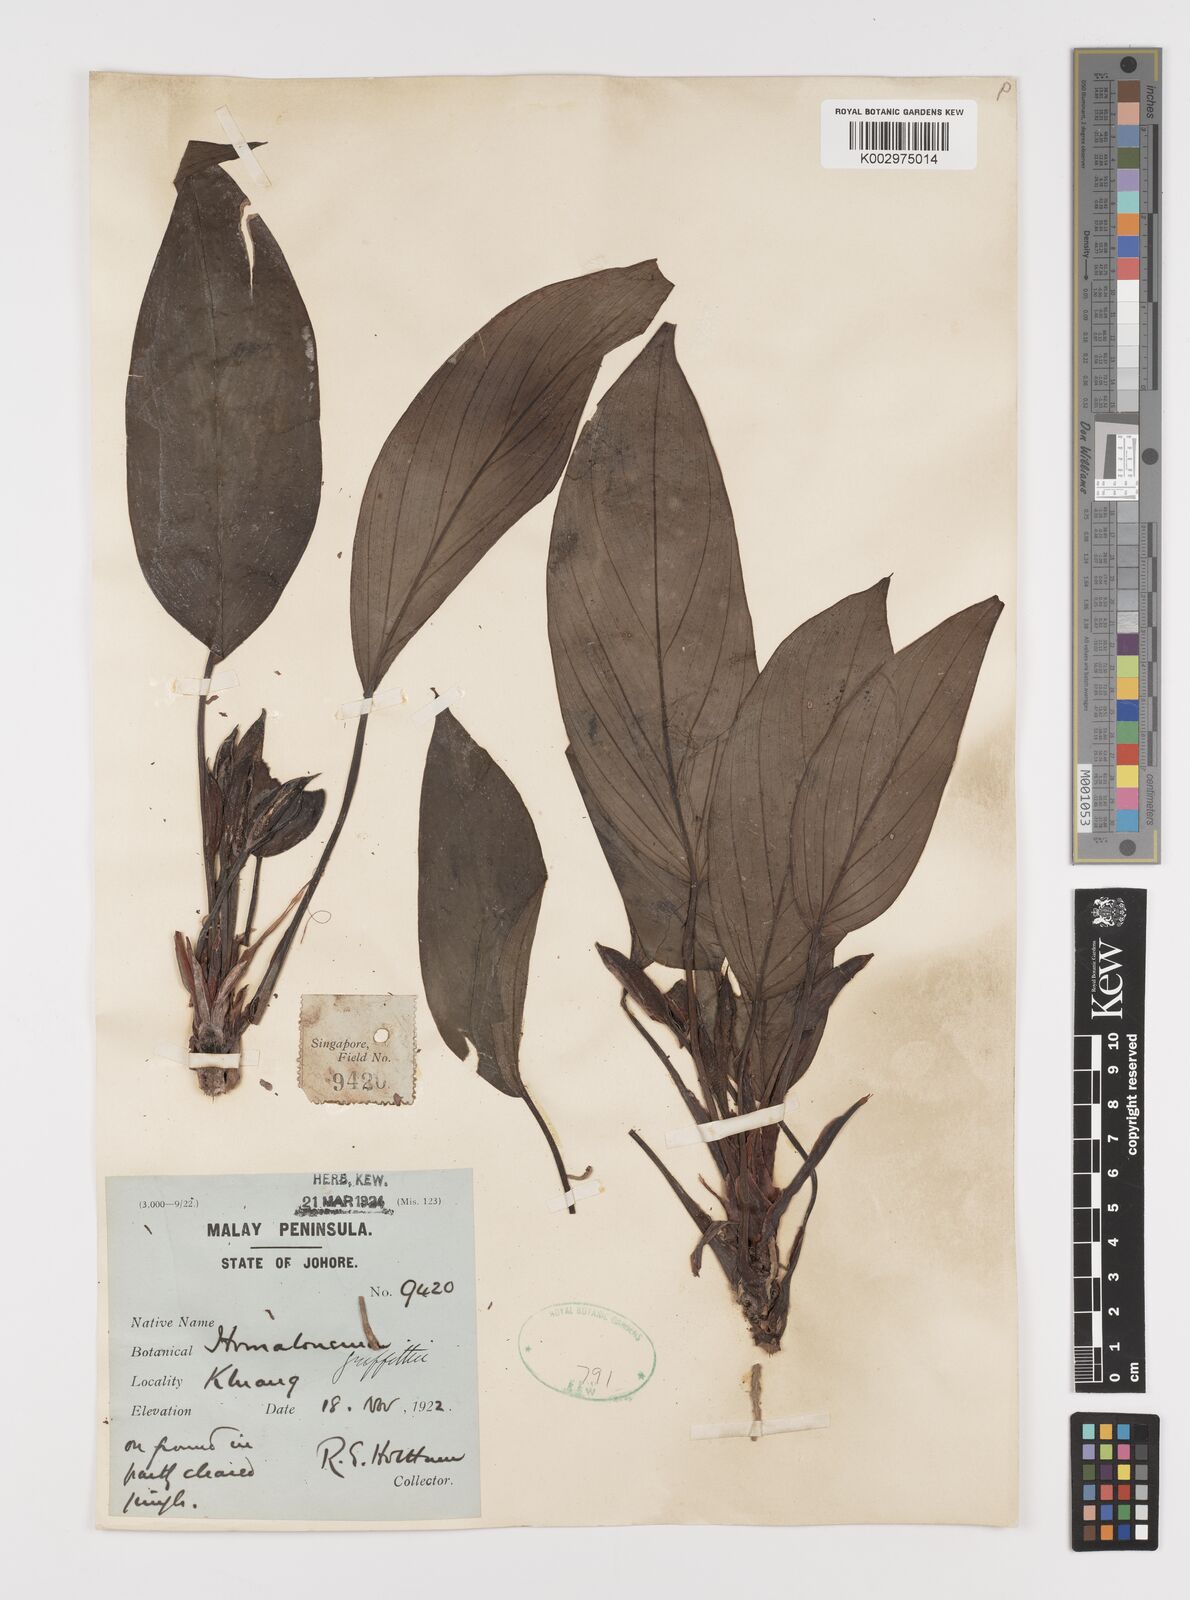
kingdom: Plantae
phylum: Tracheophyta
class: Liliopsida
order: Alismatales
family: Araceae
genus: Homalomena
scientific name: Homalomena griffithii
